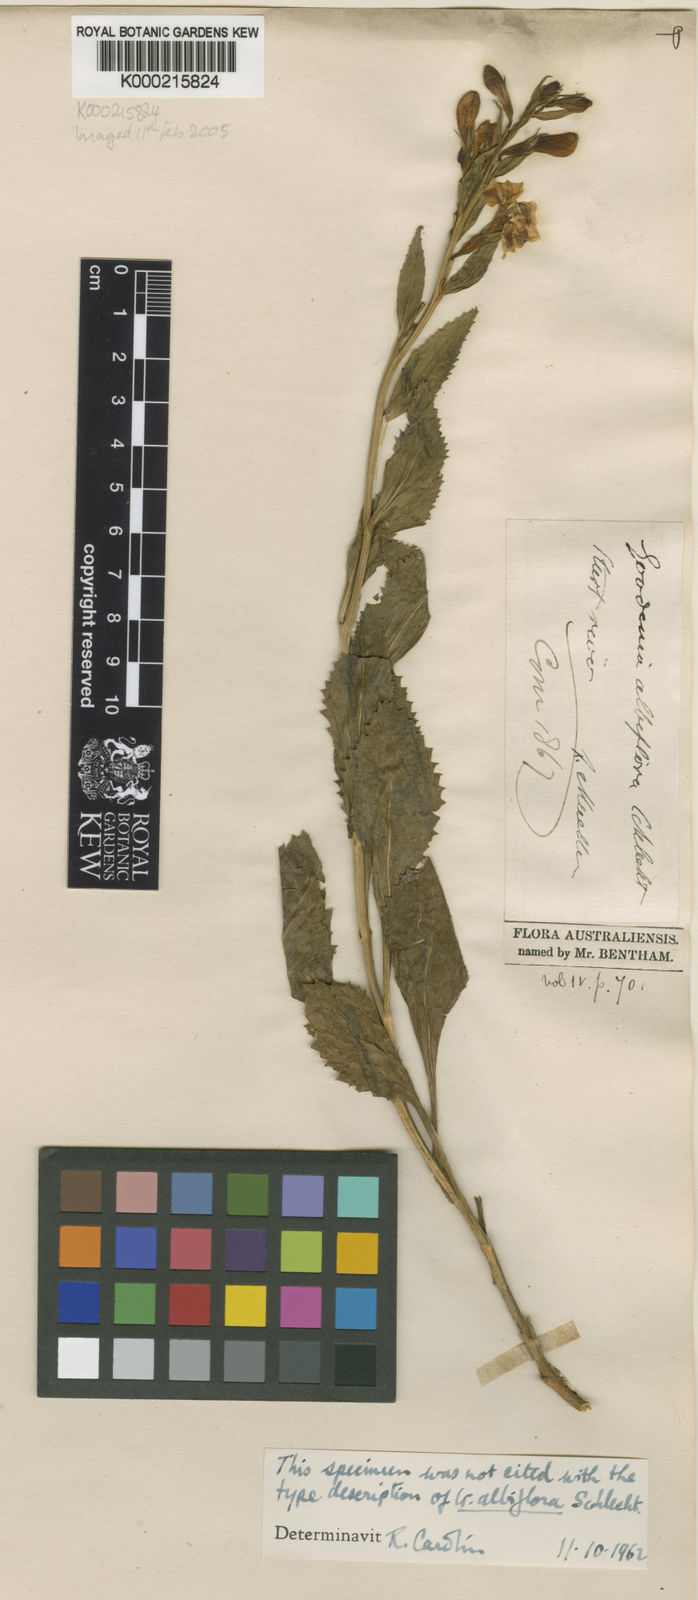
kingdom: Plantae
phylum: Tracheophyta
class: Magnoliopsida
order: Asterales
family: Goodeniaceae
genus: Goodenia
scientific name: Goodenia albiflora
